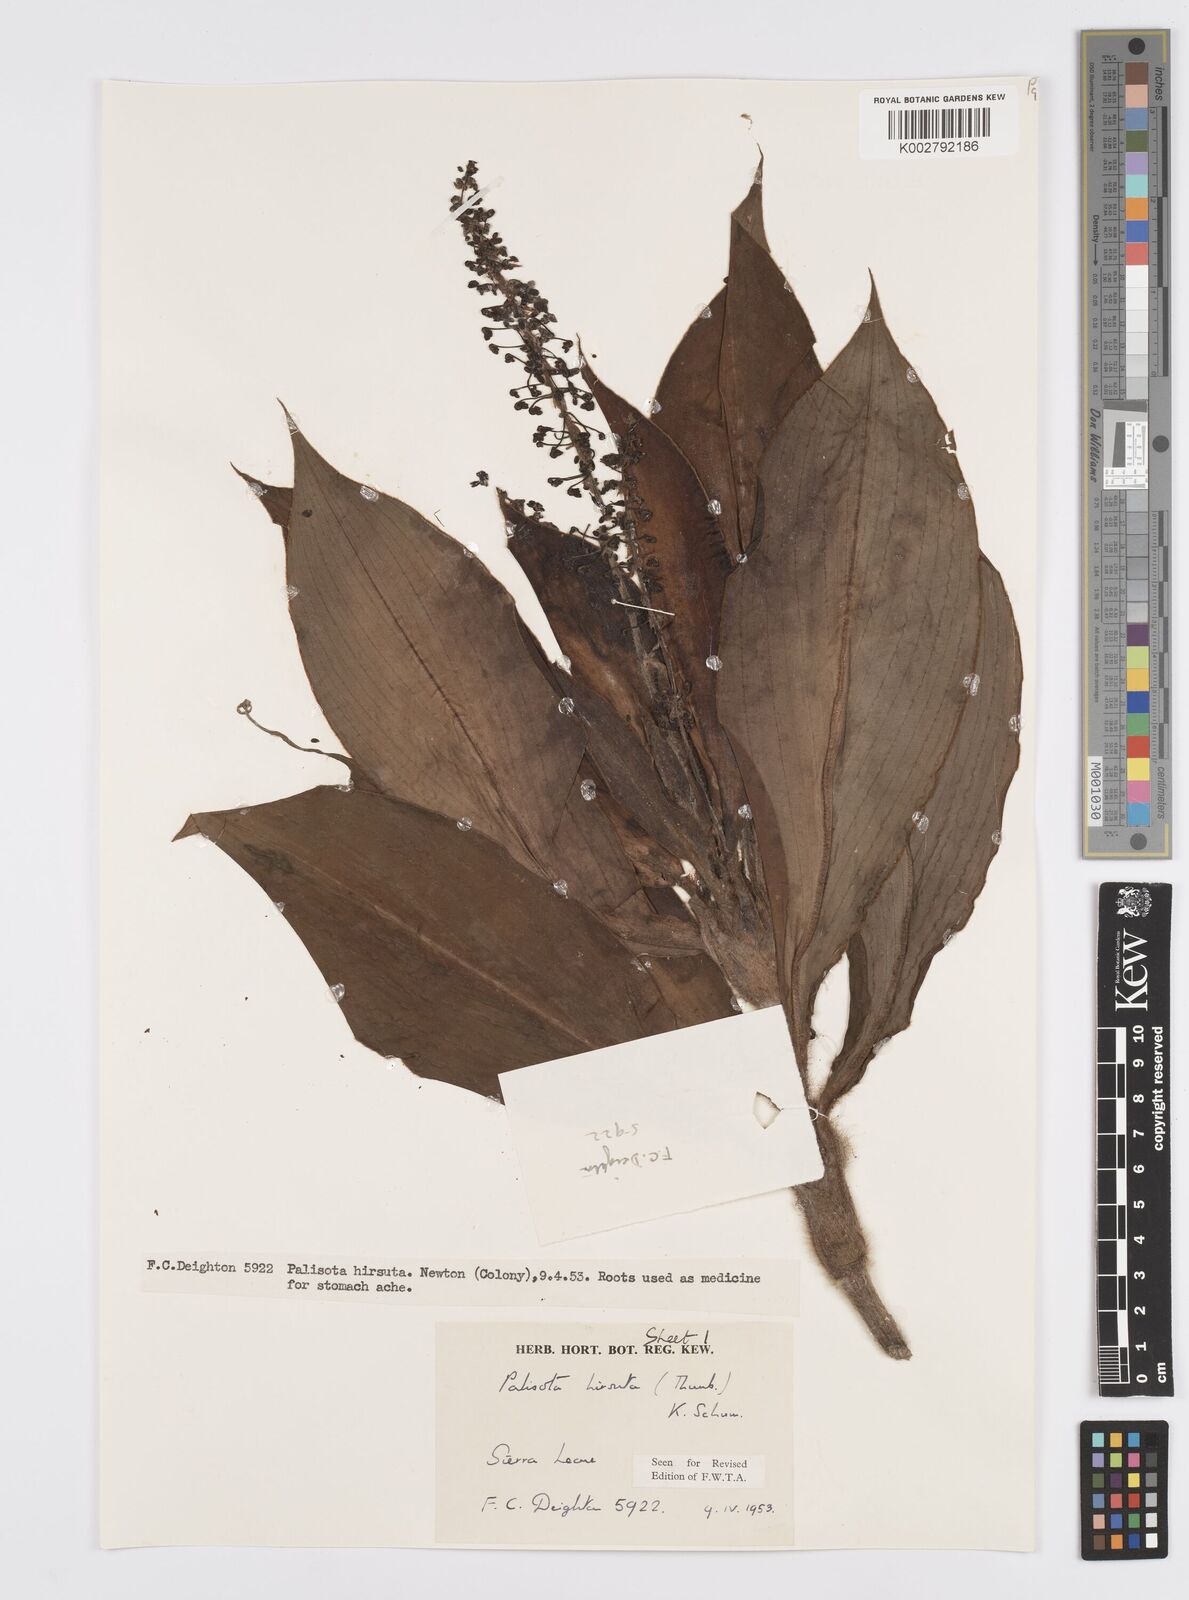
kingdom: Plantae
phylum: Tracheophyta
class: Liliopsida
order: Commelinales
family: Commelinaceae
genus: Palisota
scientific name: Palisota hirsuta
